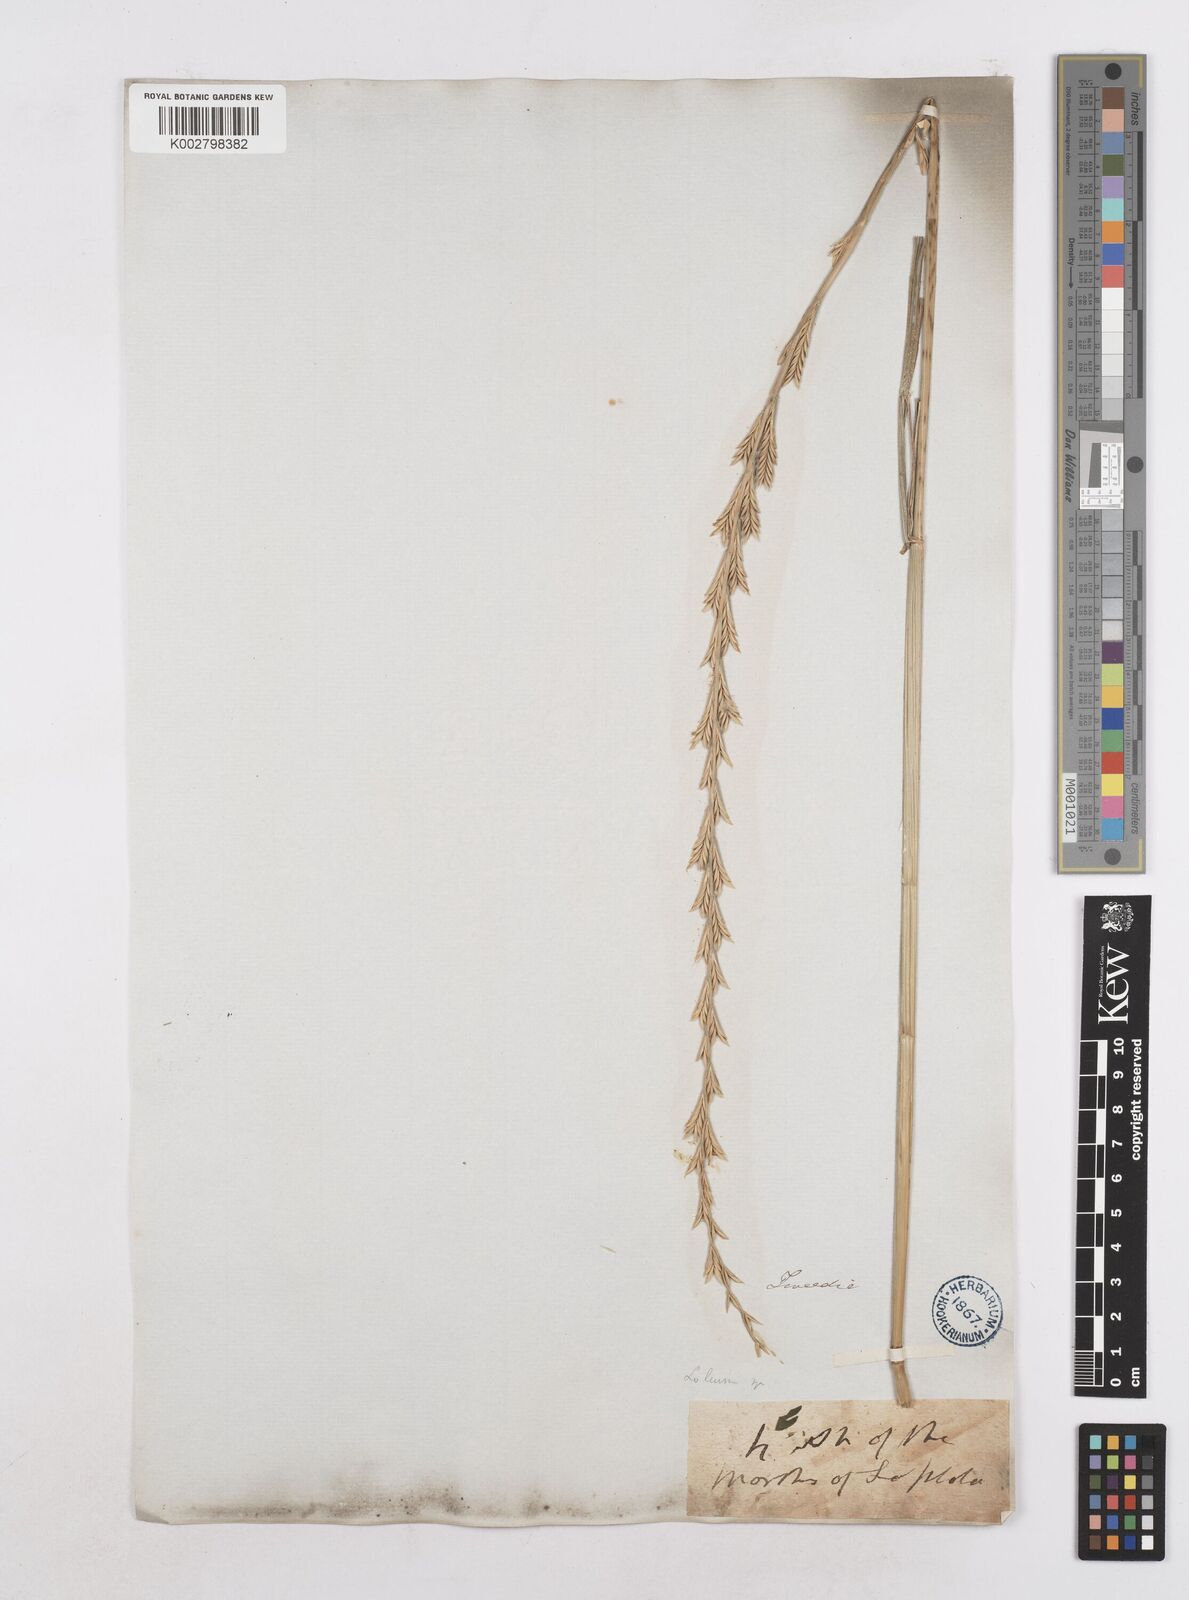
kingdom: Plantae
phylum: Tracheophyta
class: Liliopsida
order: Poales
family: Poaceae
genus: Lolium
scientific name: Lolium multiflorum
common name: Annual ryegrass
